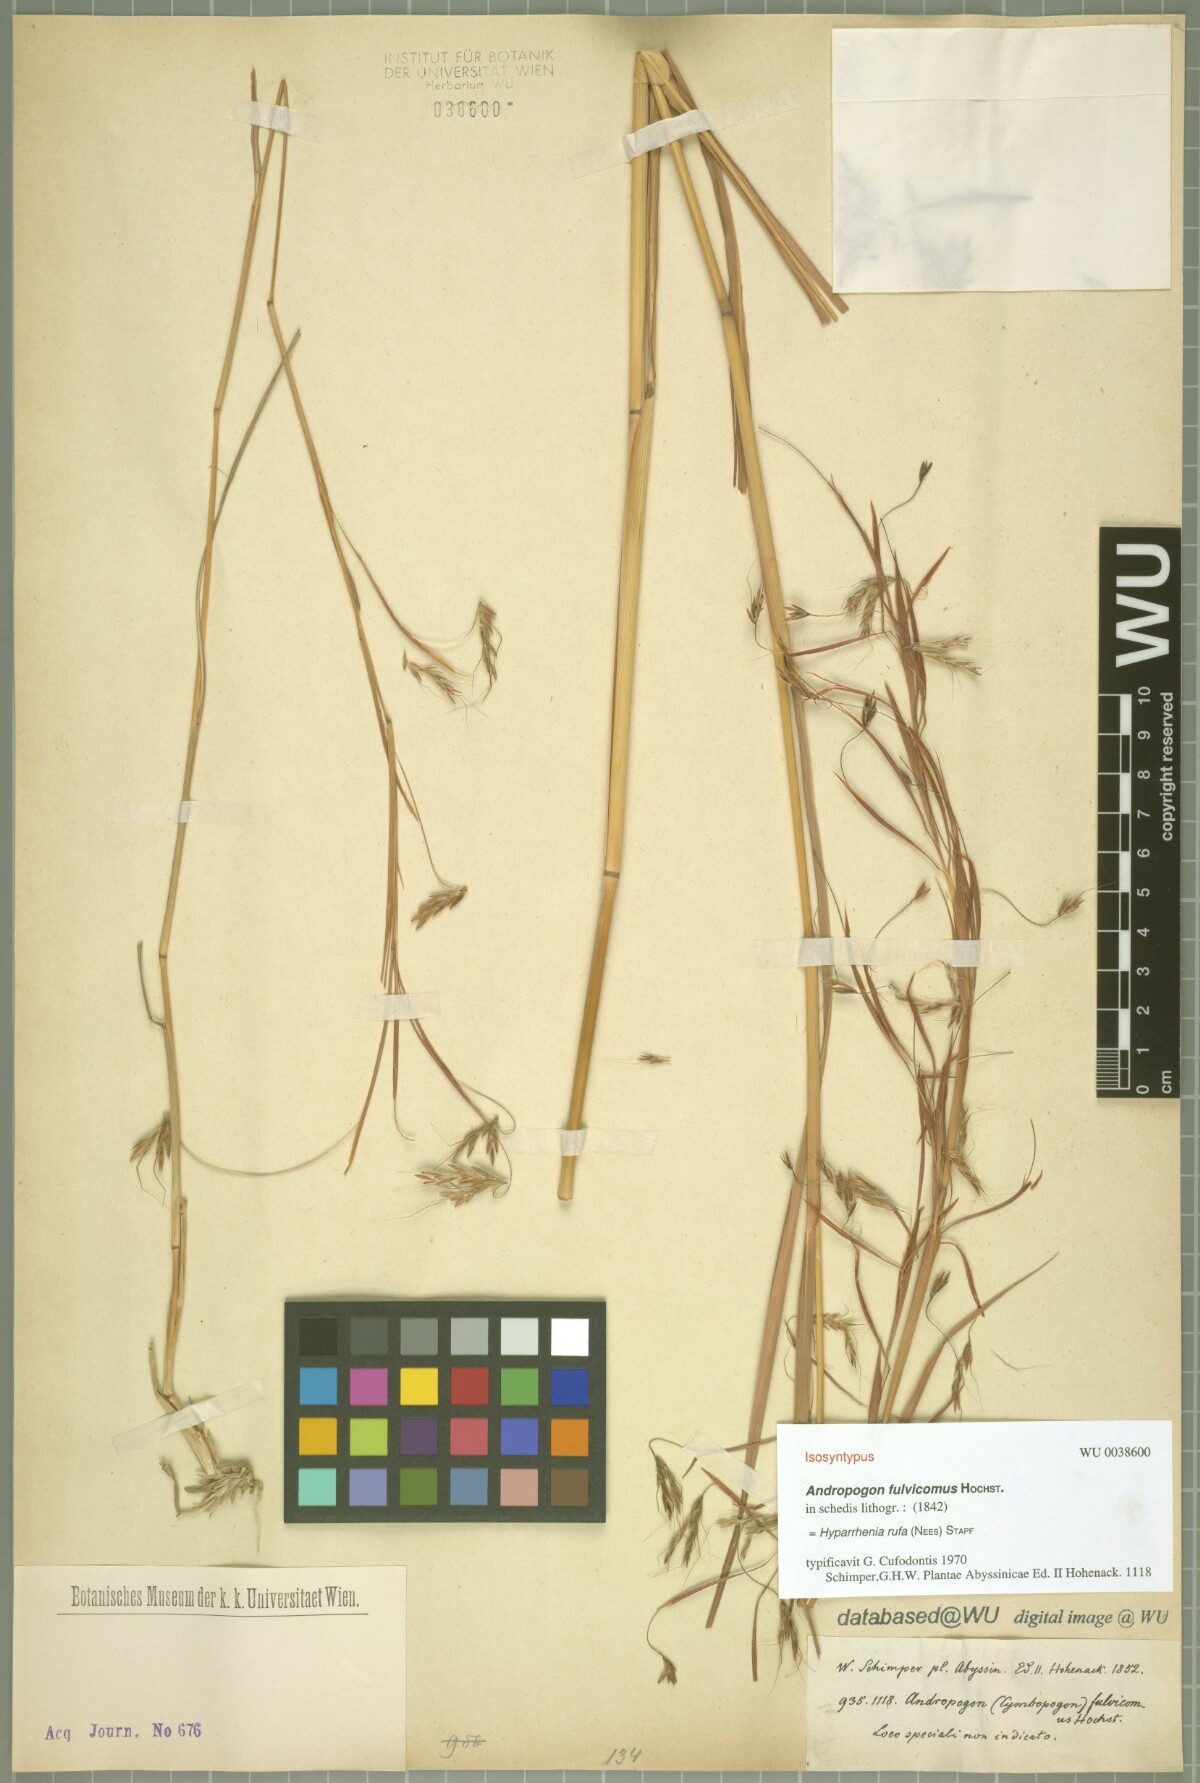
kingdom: Plantae
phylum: Tracheophyta
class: Liliopsida
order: Poales
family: Poaceae
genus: Hyparrhenia
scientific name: Hyparrhenia rufa
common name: Jaraguagrass
